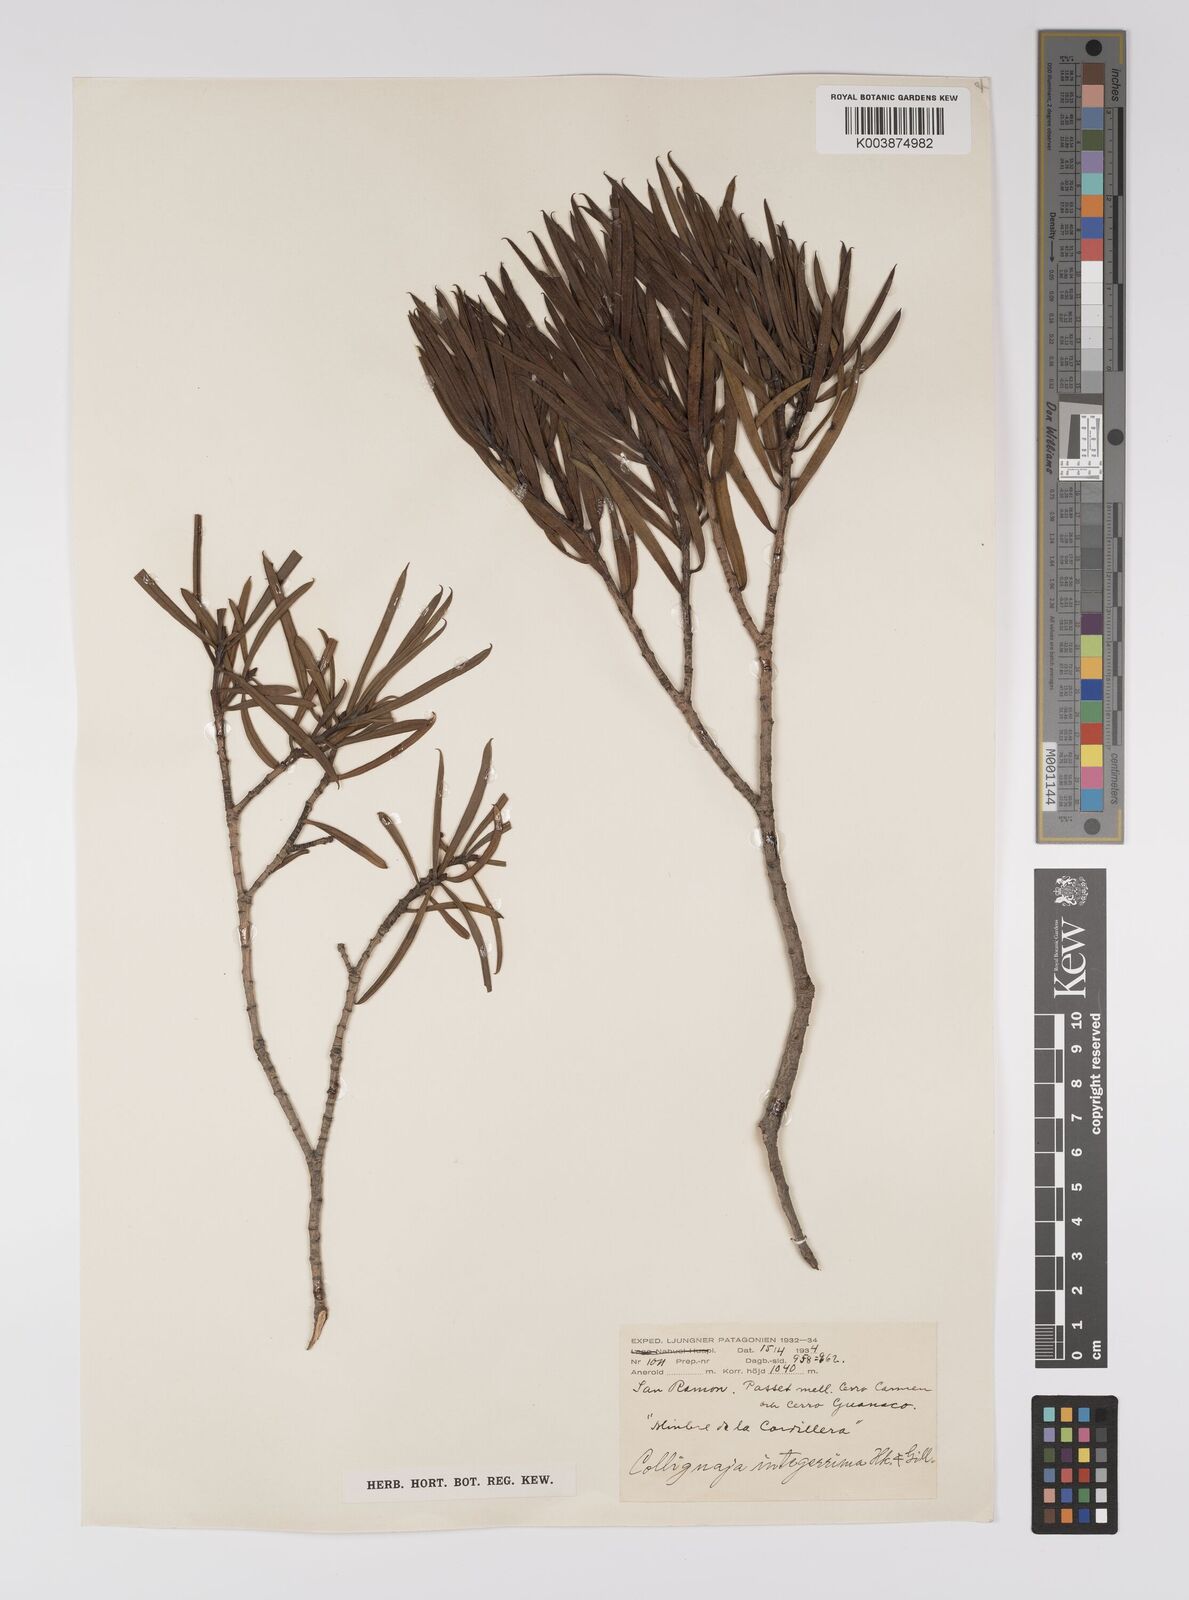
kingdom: Plantae
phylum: Tracheophyta
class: Magnoliopsida
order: Malpighiales
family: Euphorbiaceae
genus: Colliguaja
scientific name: Colliguaja integerrima
